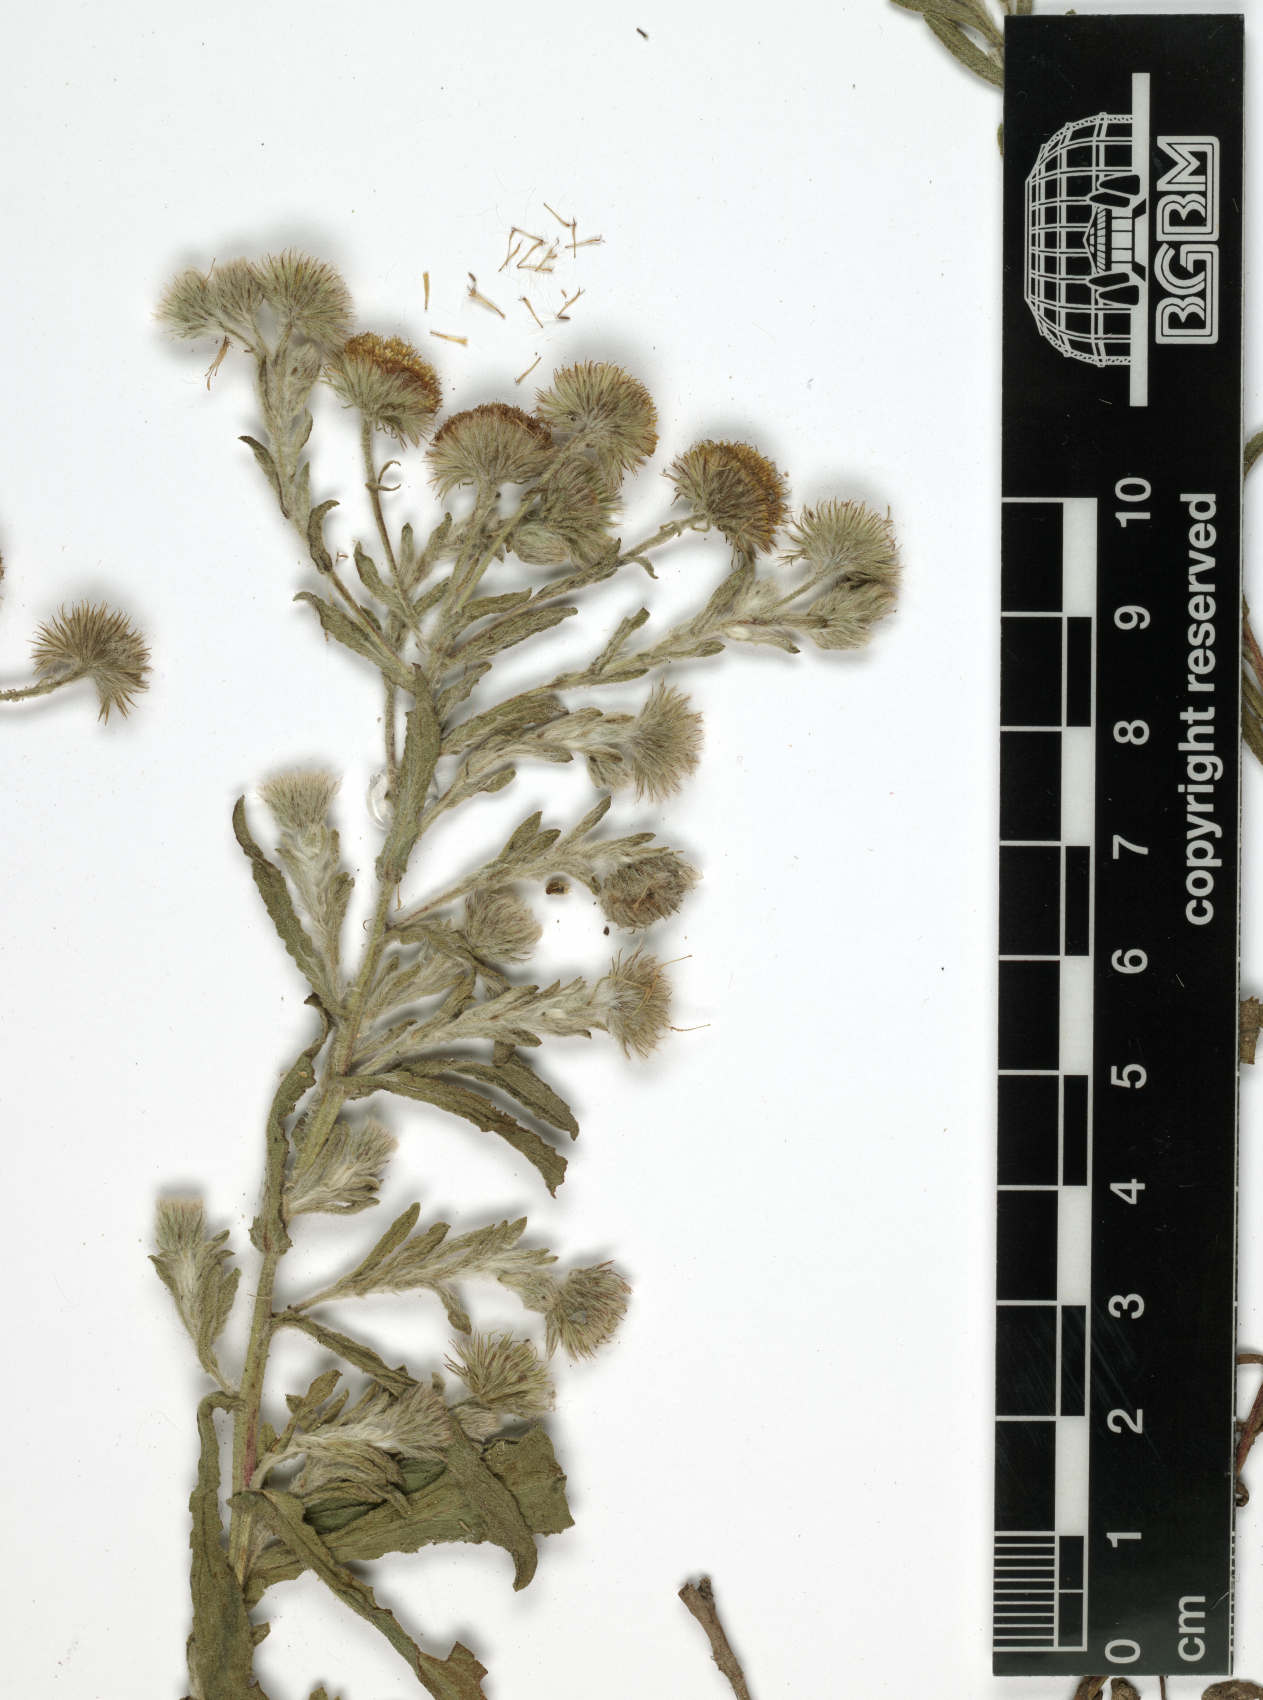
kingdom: Plantae
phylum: Tracheophyta
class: Magnoliopsida
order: Asterales
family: Asteraceae
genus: Pulicaria
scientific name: Pulicaria inuloides
